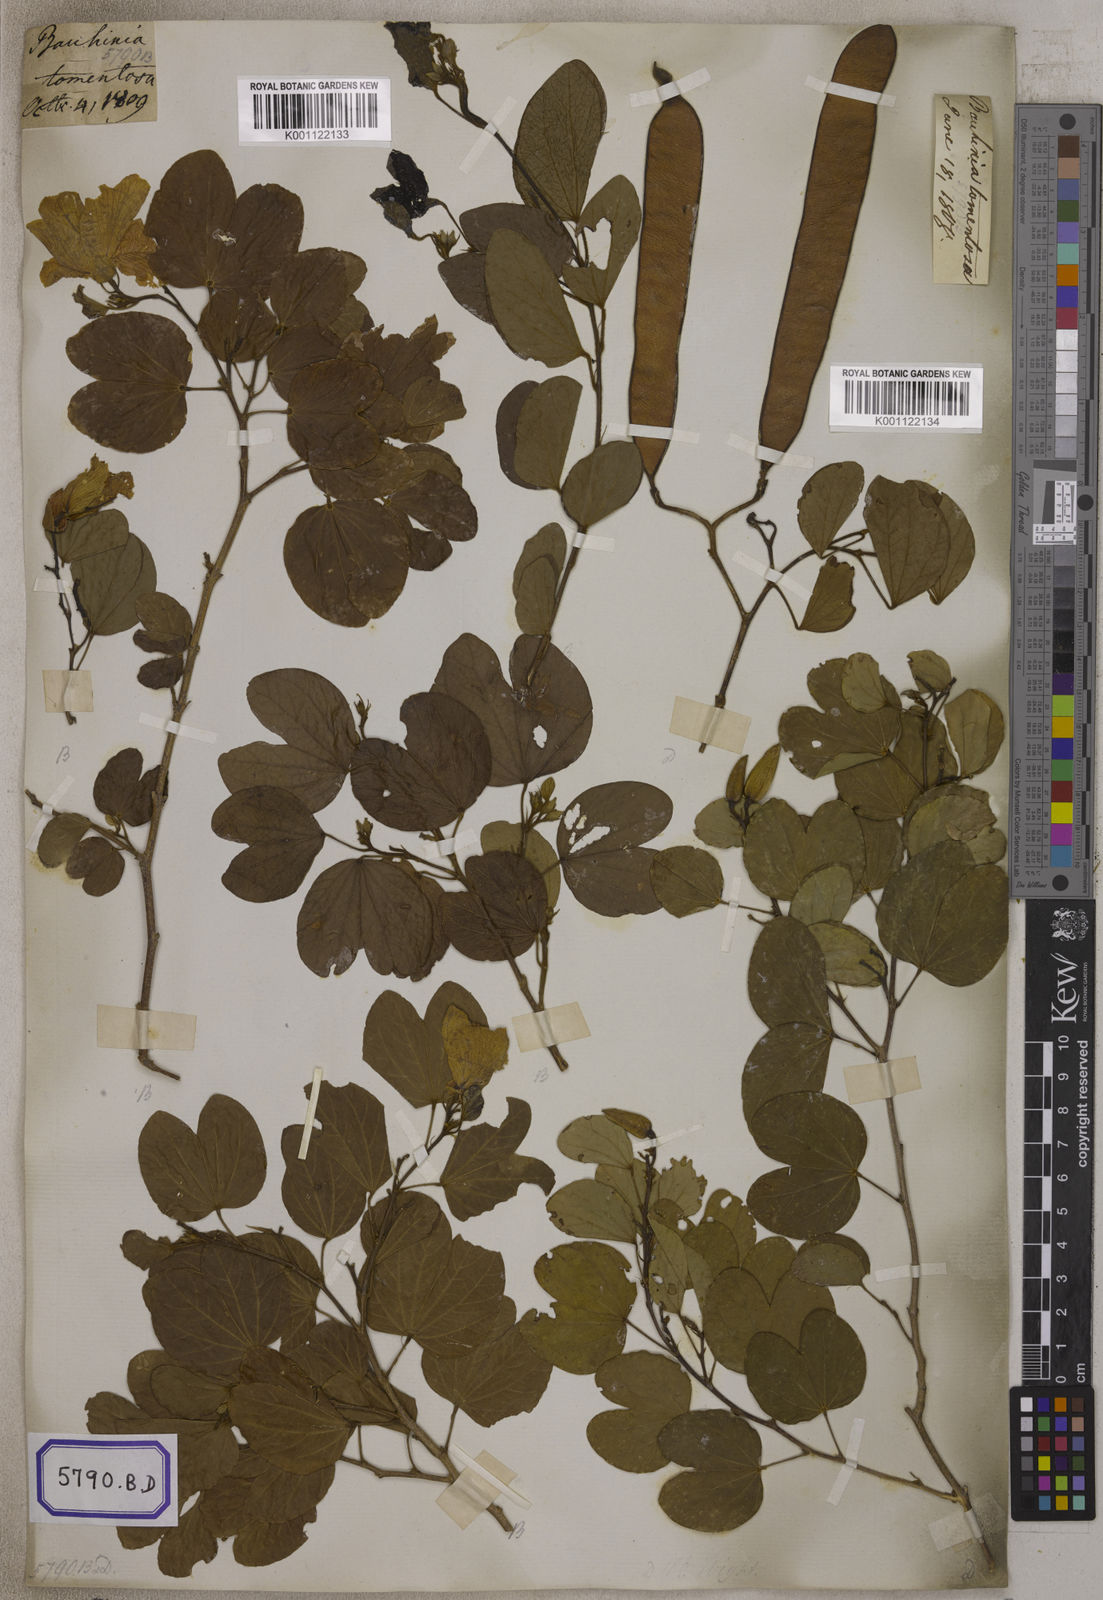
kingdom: Plantae
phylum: Tracheophyta
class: Magnoliopsida
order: Fabales
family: Fabaceae
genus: Bauhinia
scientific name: Bauhinia tomentosa
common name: Bell bauhinia
